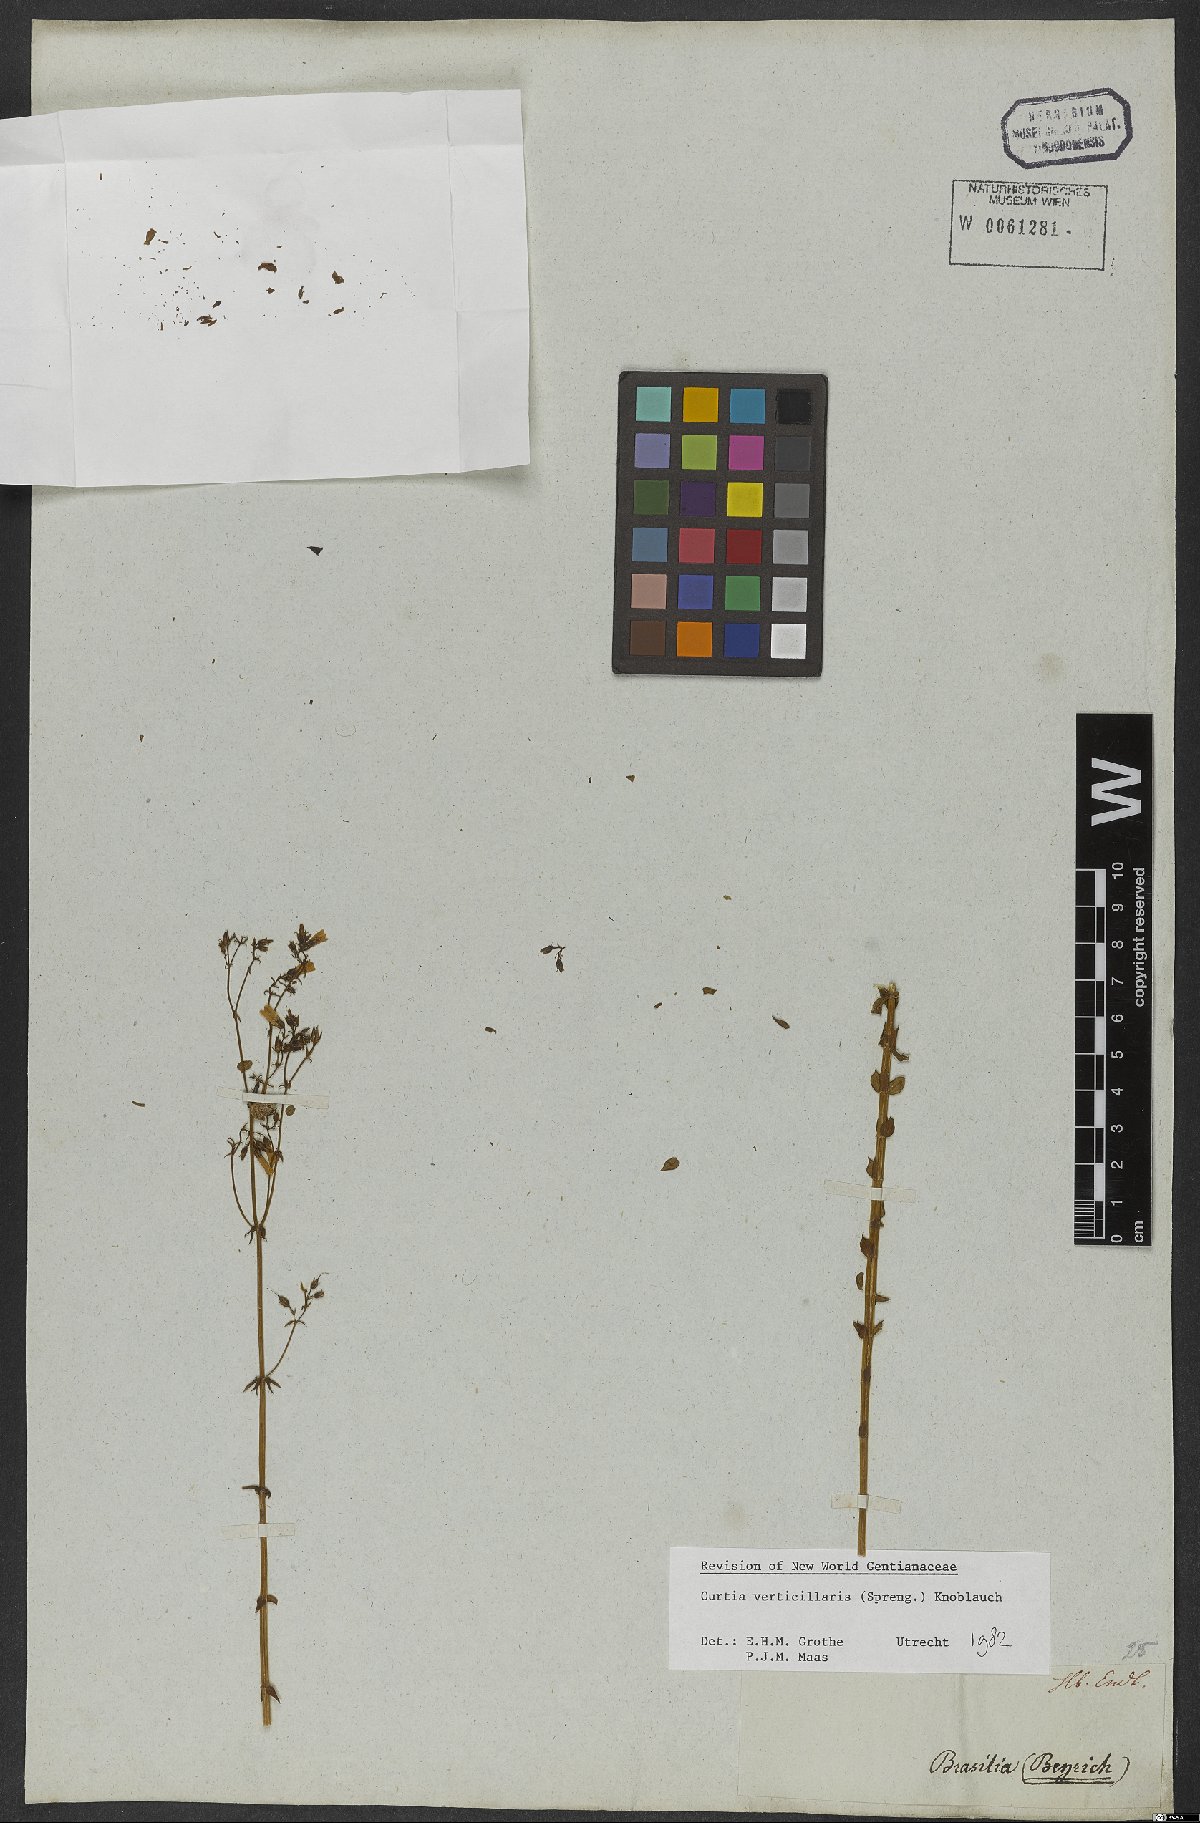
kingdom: Plantae
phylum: Tracheophyta
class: Magnoliopsida
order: Gentianales
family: Gentianaceae
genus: Curtia
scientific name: Curtia verticillaris
